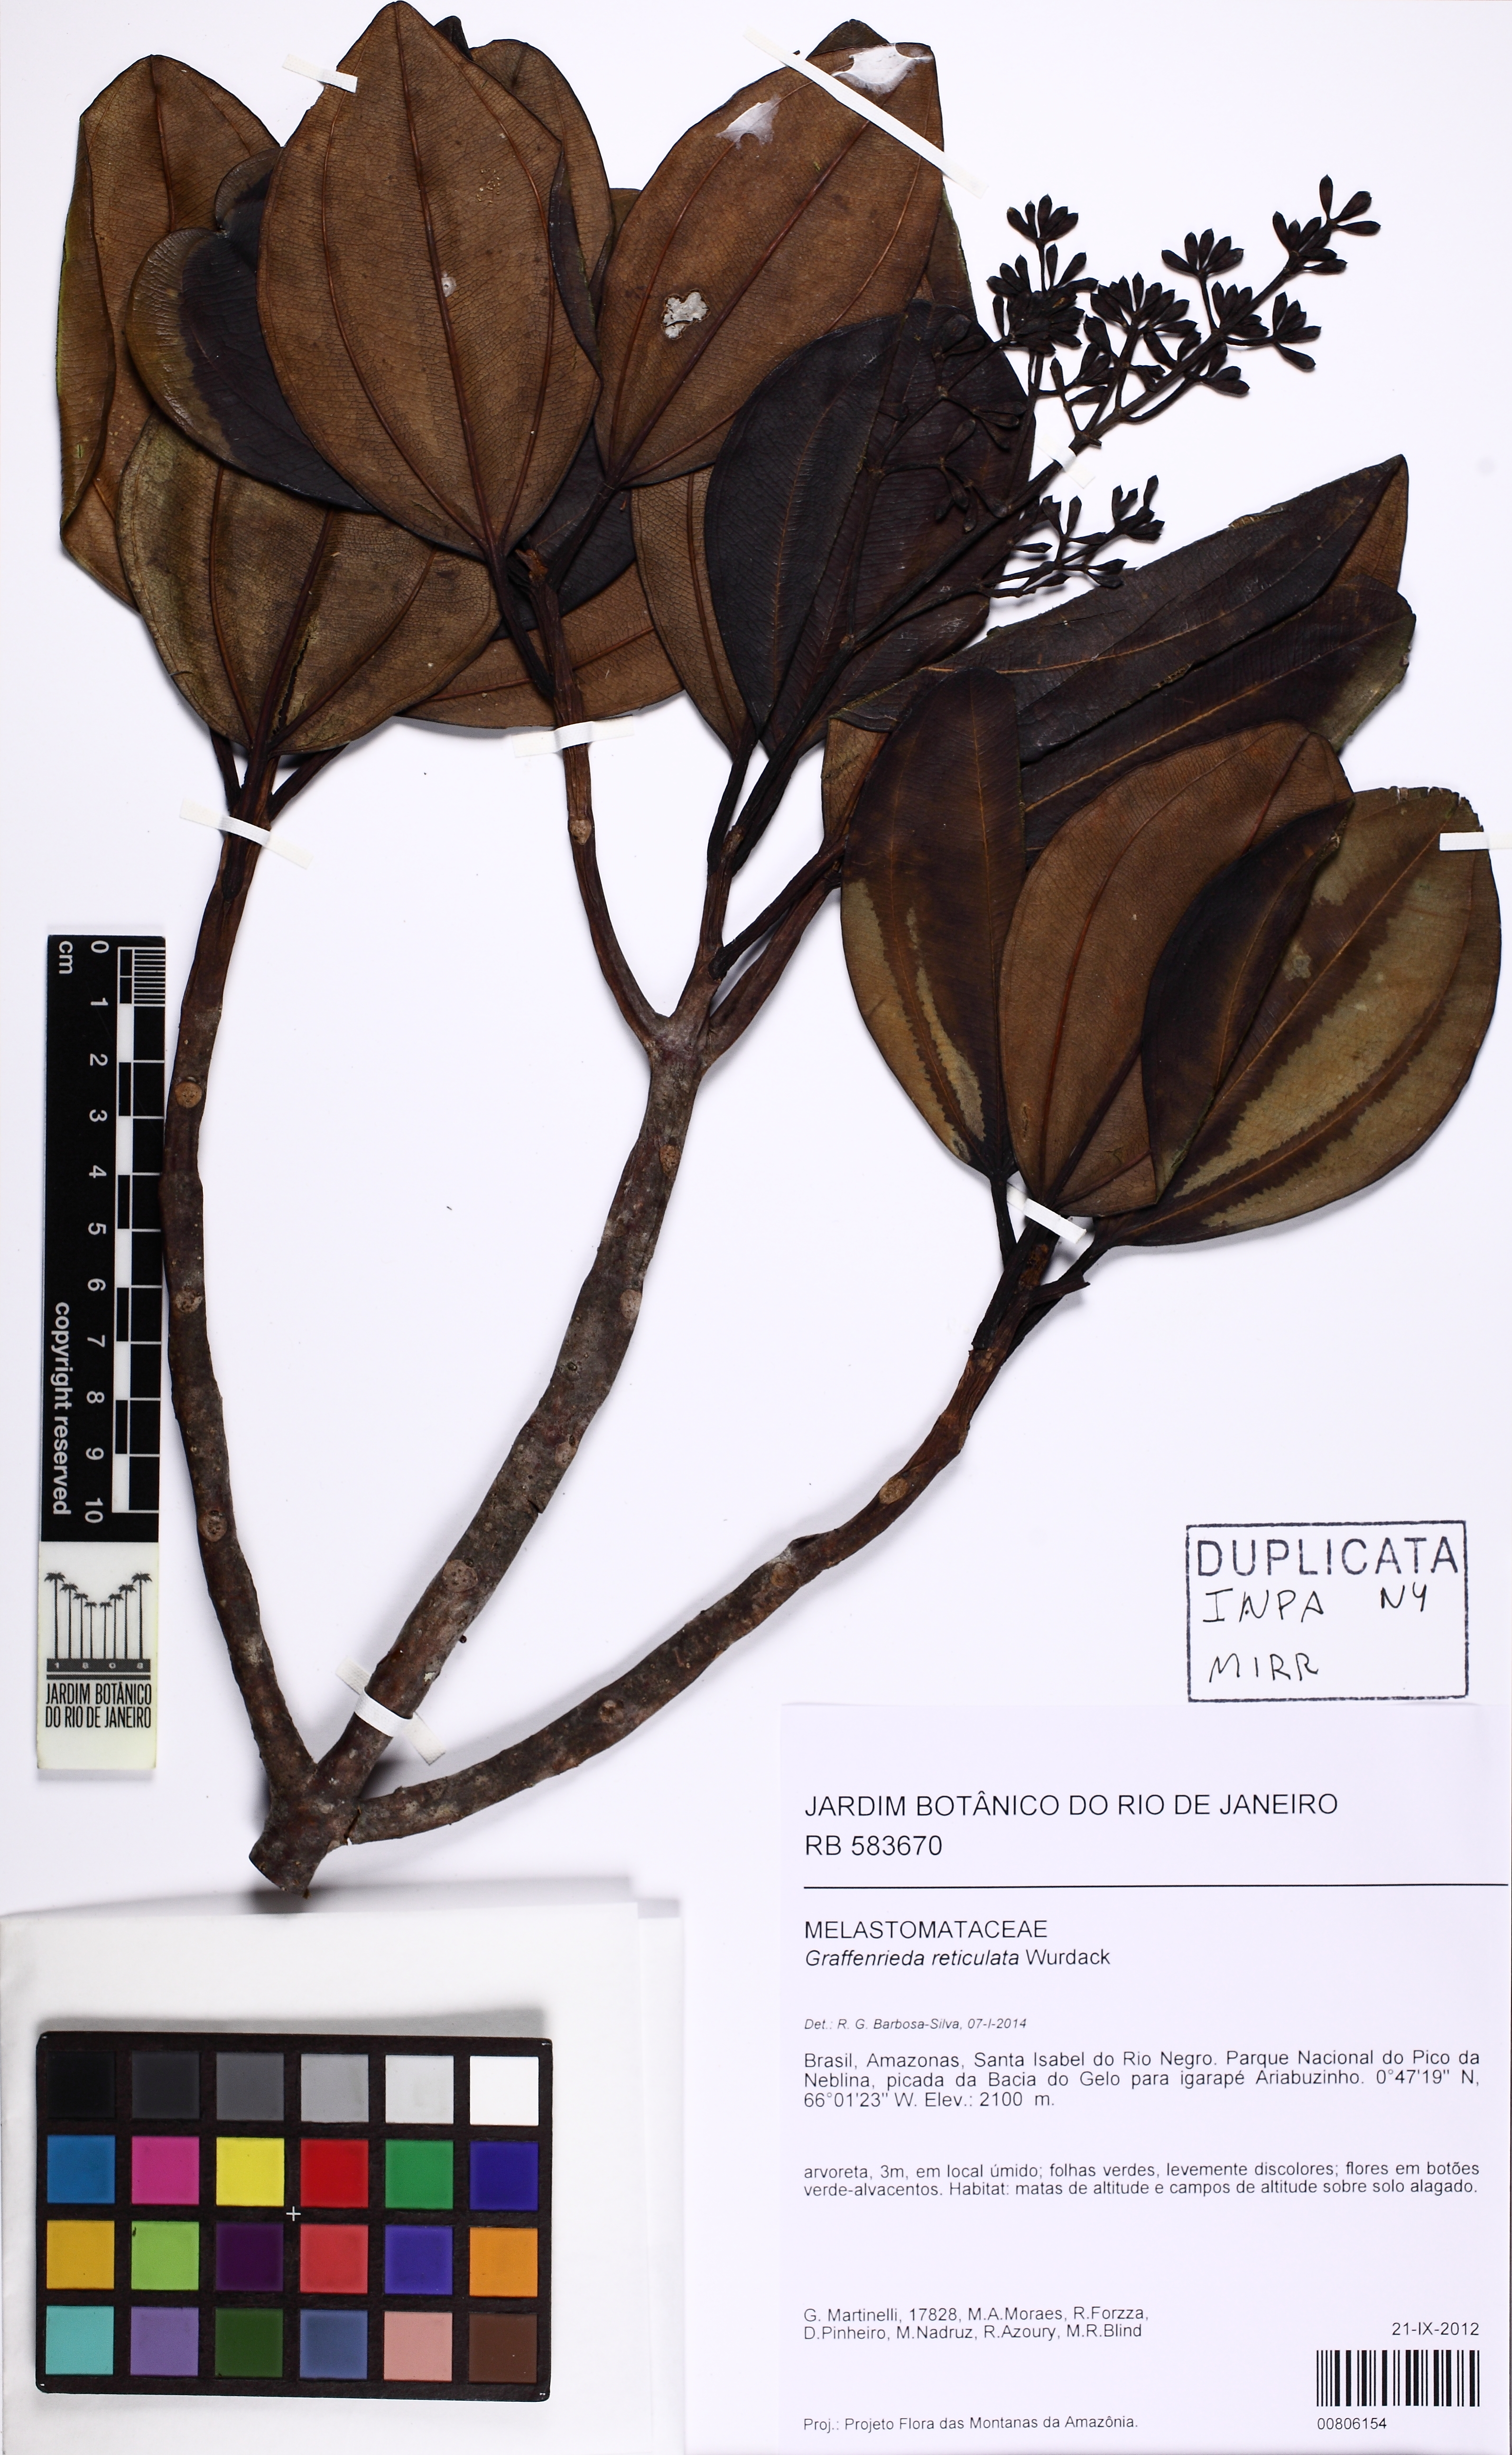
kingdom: Plantae
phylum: Tracheophyta
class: Magnoliopsida
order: Myrtales
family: Melastomataceae
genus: Graffenrieda
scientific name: Graffenrieda reticulata
